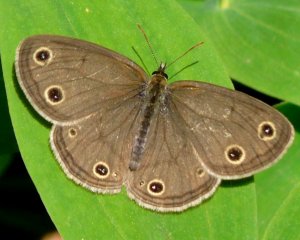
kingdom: Animalia
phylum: Arthropoda
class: Insecta
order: Lepidoptera
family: Nymphalidae
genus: Euptychia
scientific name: Euptychia cymela
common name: Little Wood Satyr
